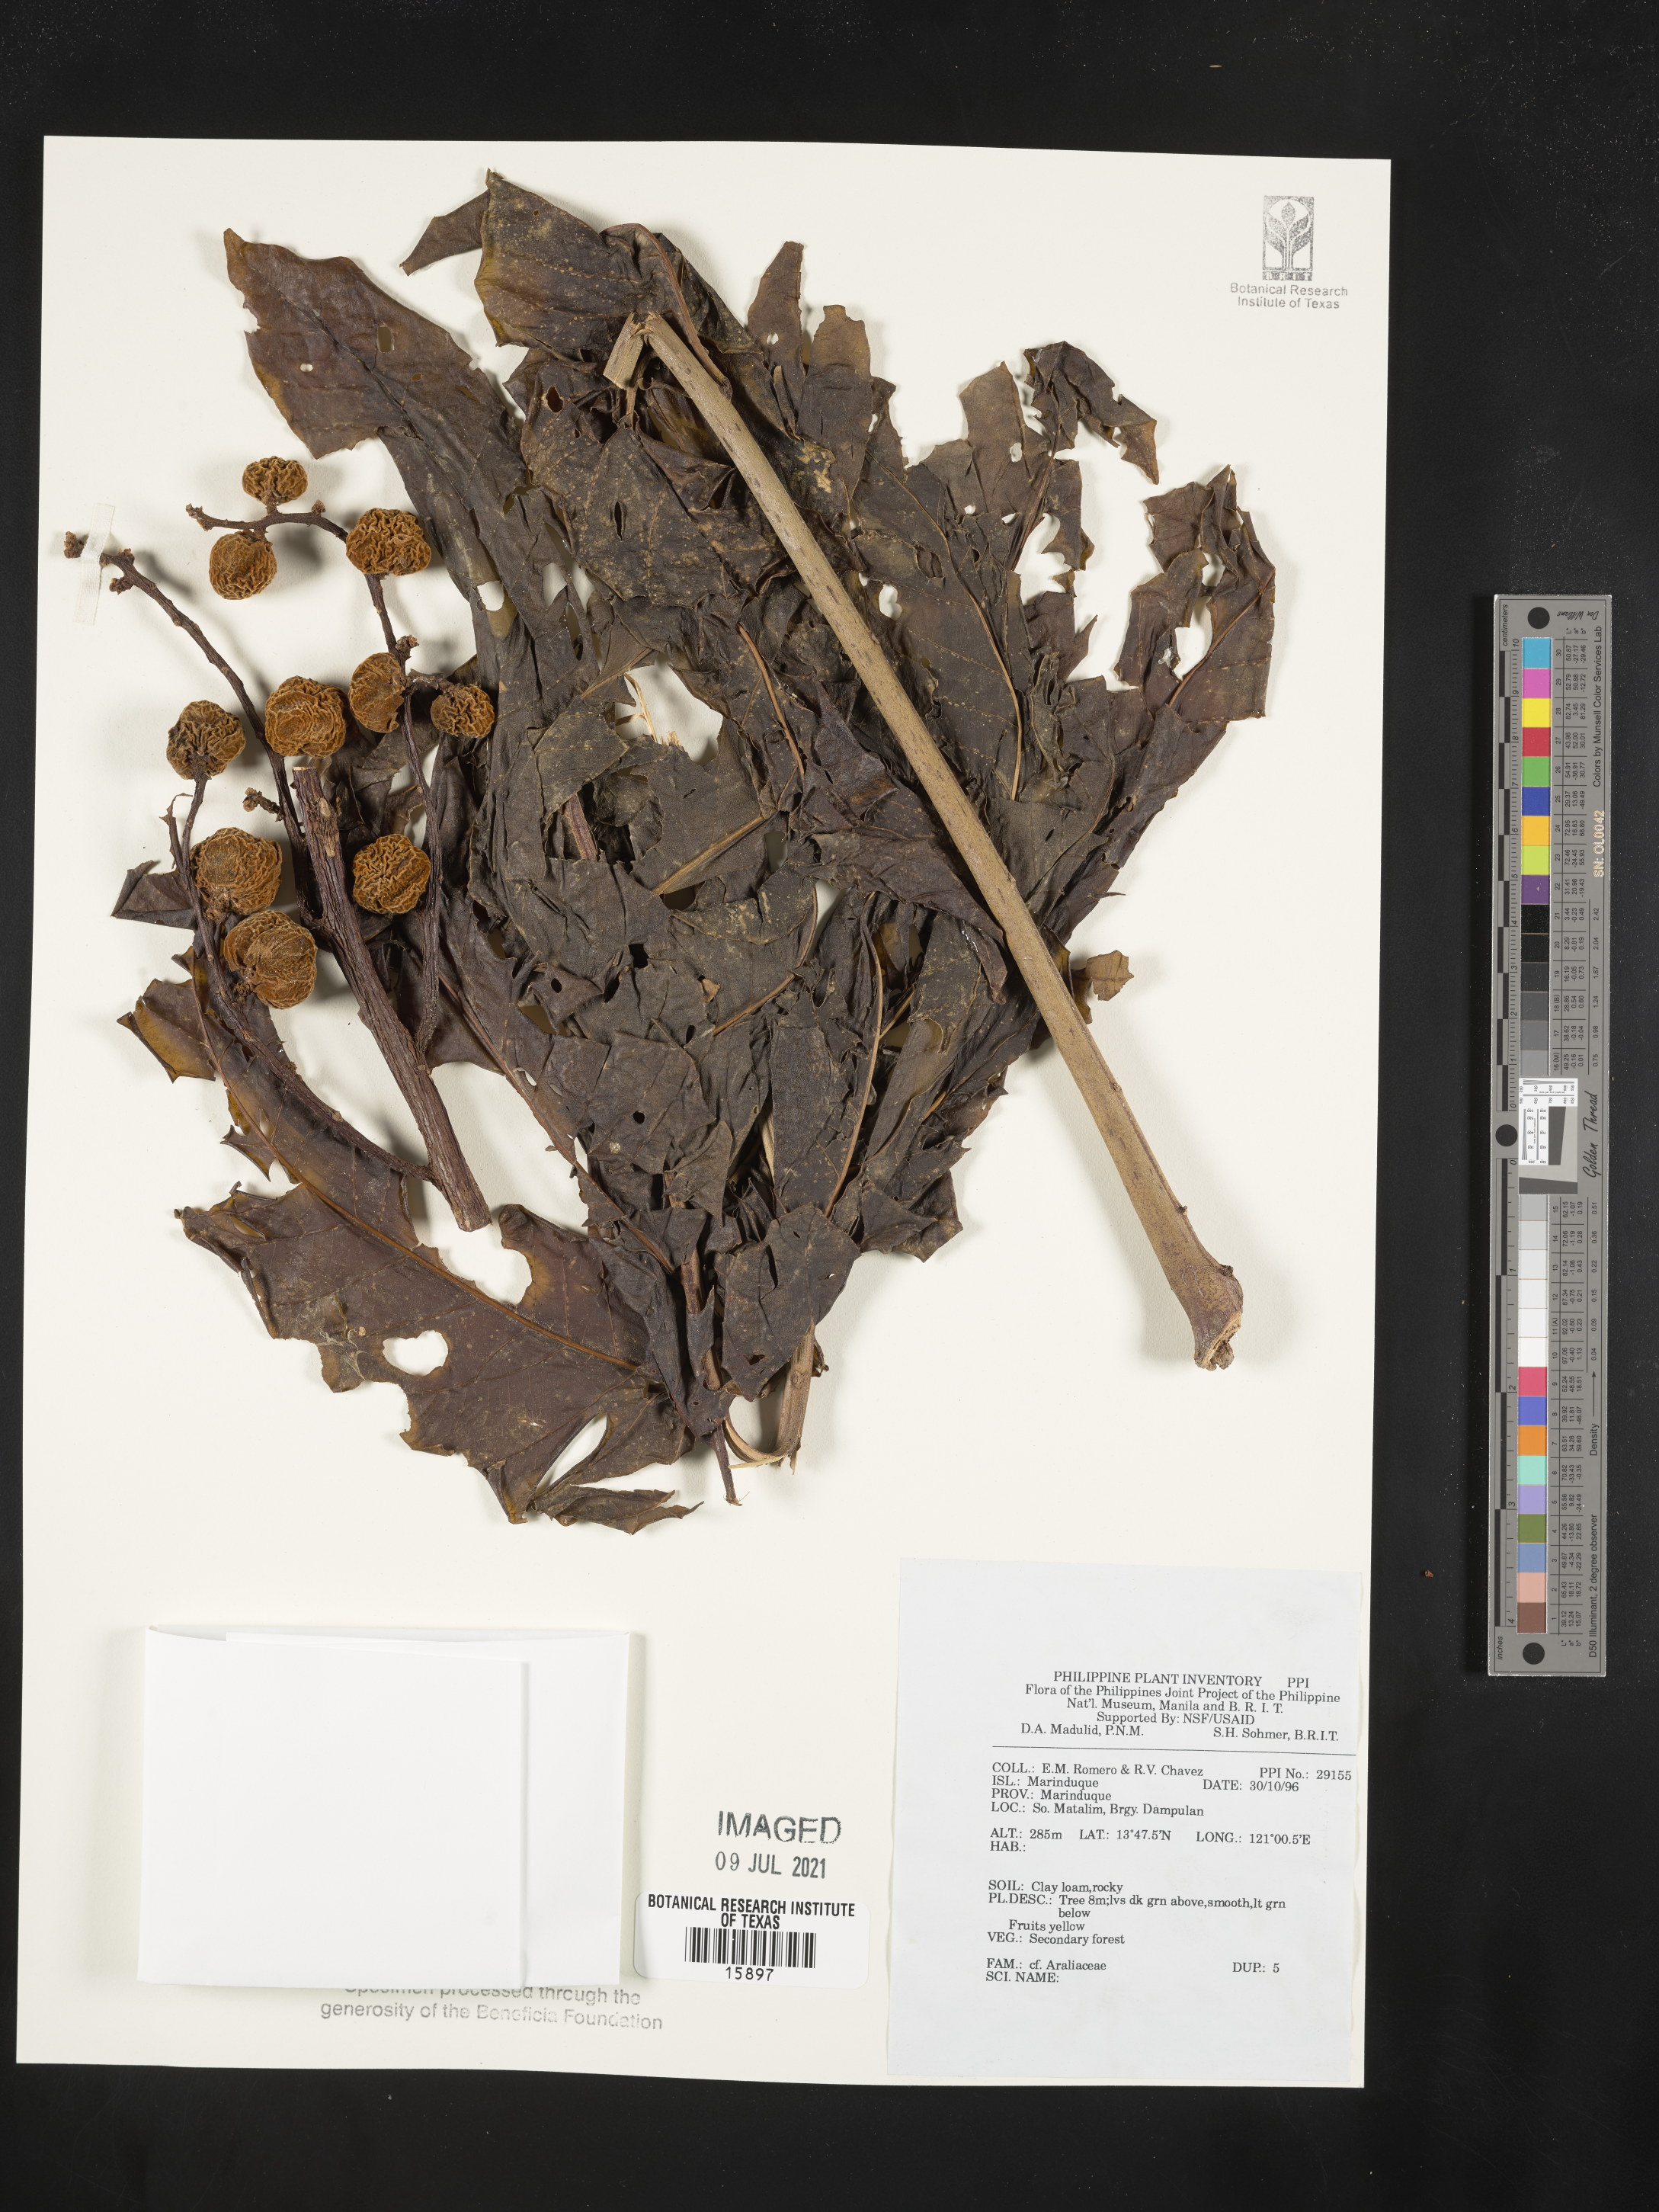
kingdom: Plantae
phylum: Tracheophyta
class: Magnoliopsida
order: Apiales
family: Araliaceae
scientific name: Araliaceae
